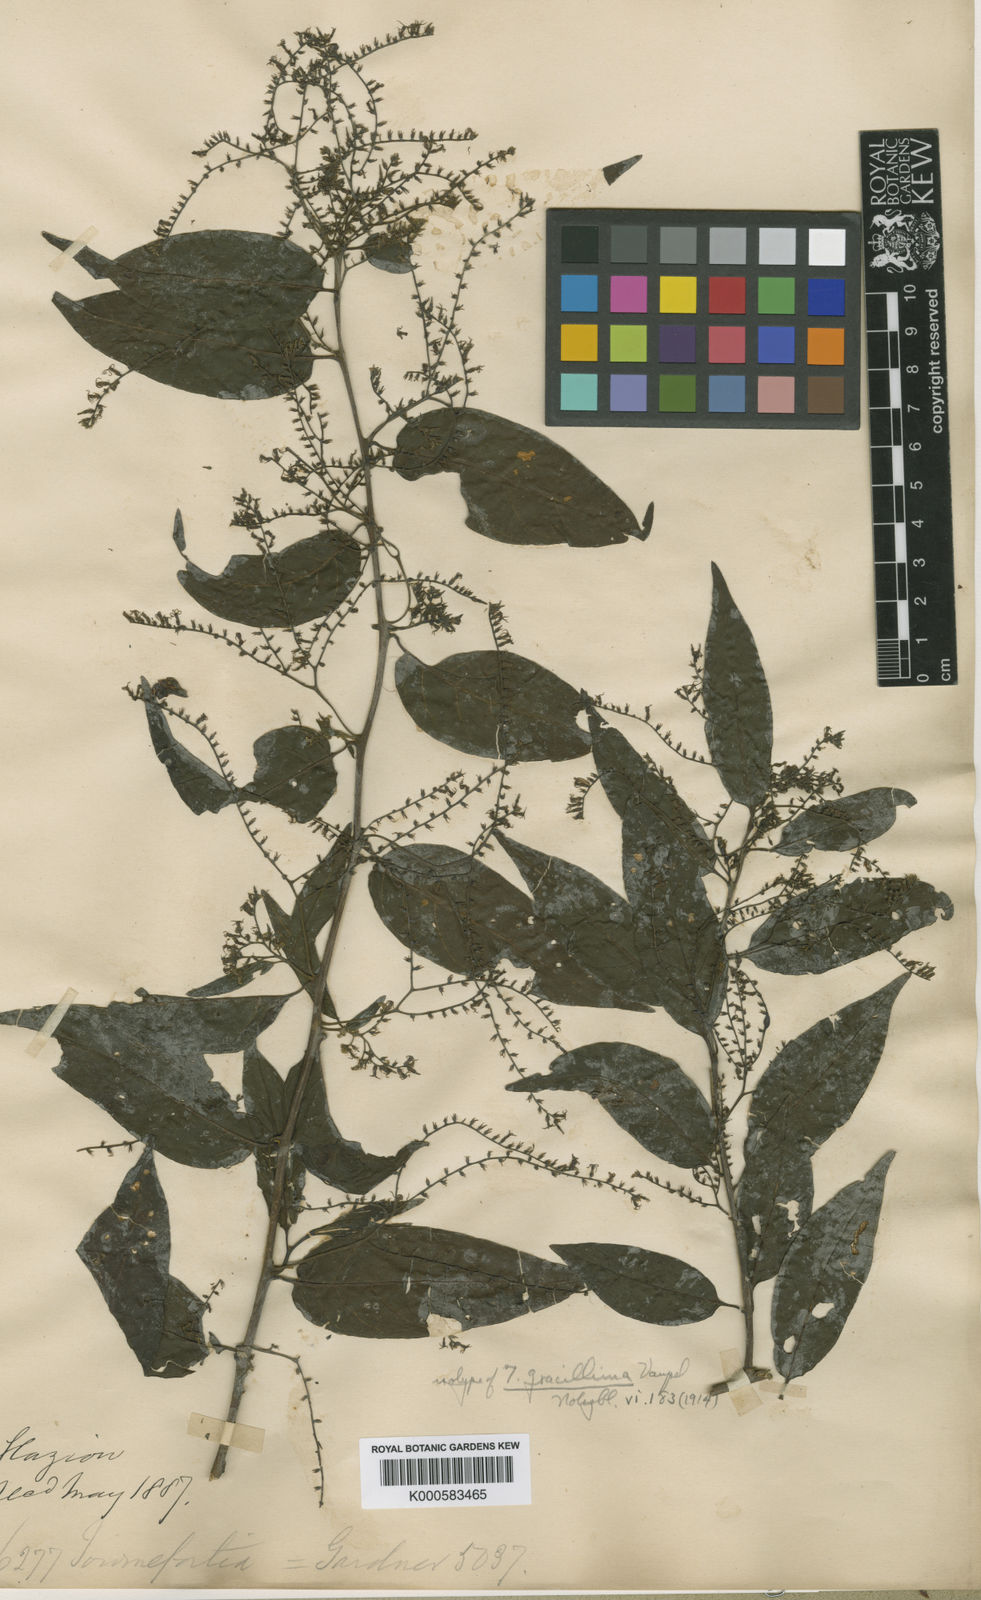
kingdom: Plantae
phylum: Tracheophyta
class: Magnoliopsida
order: Boraginales
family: Heliotropiaceae
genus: Myriopus
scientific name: Myriopus breviflorus
